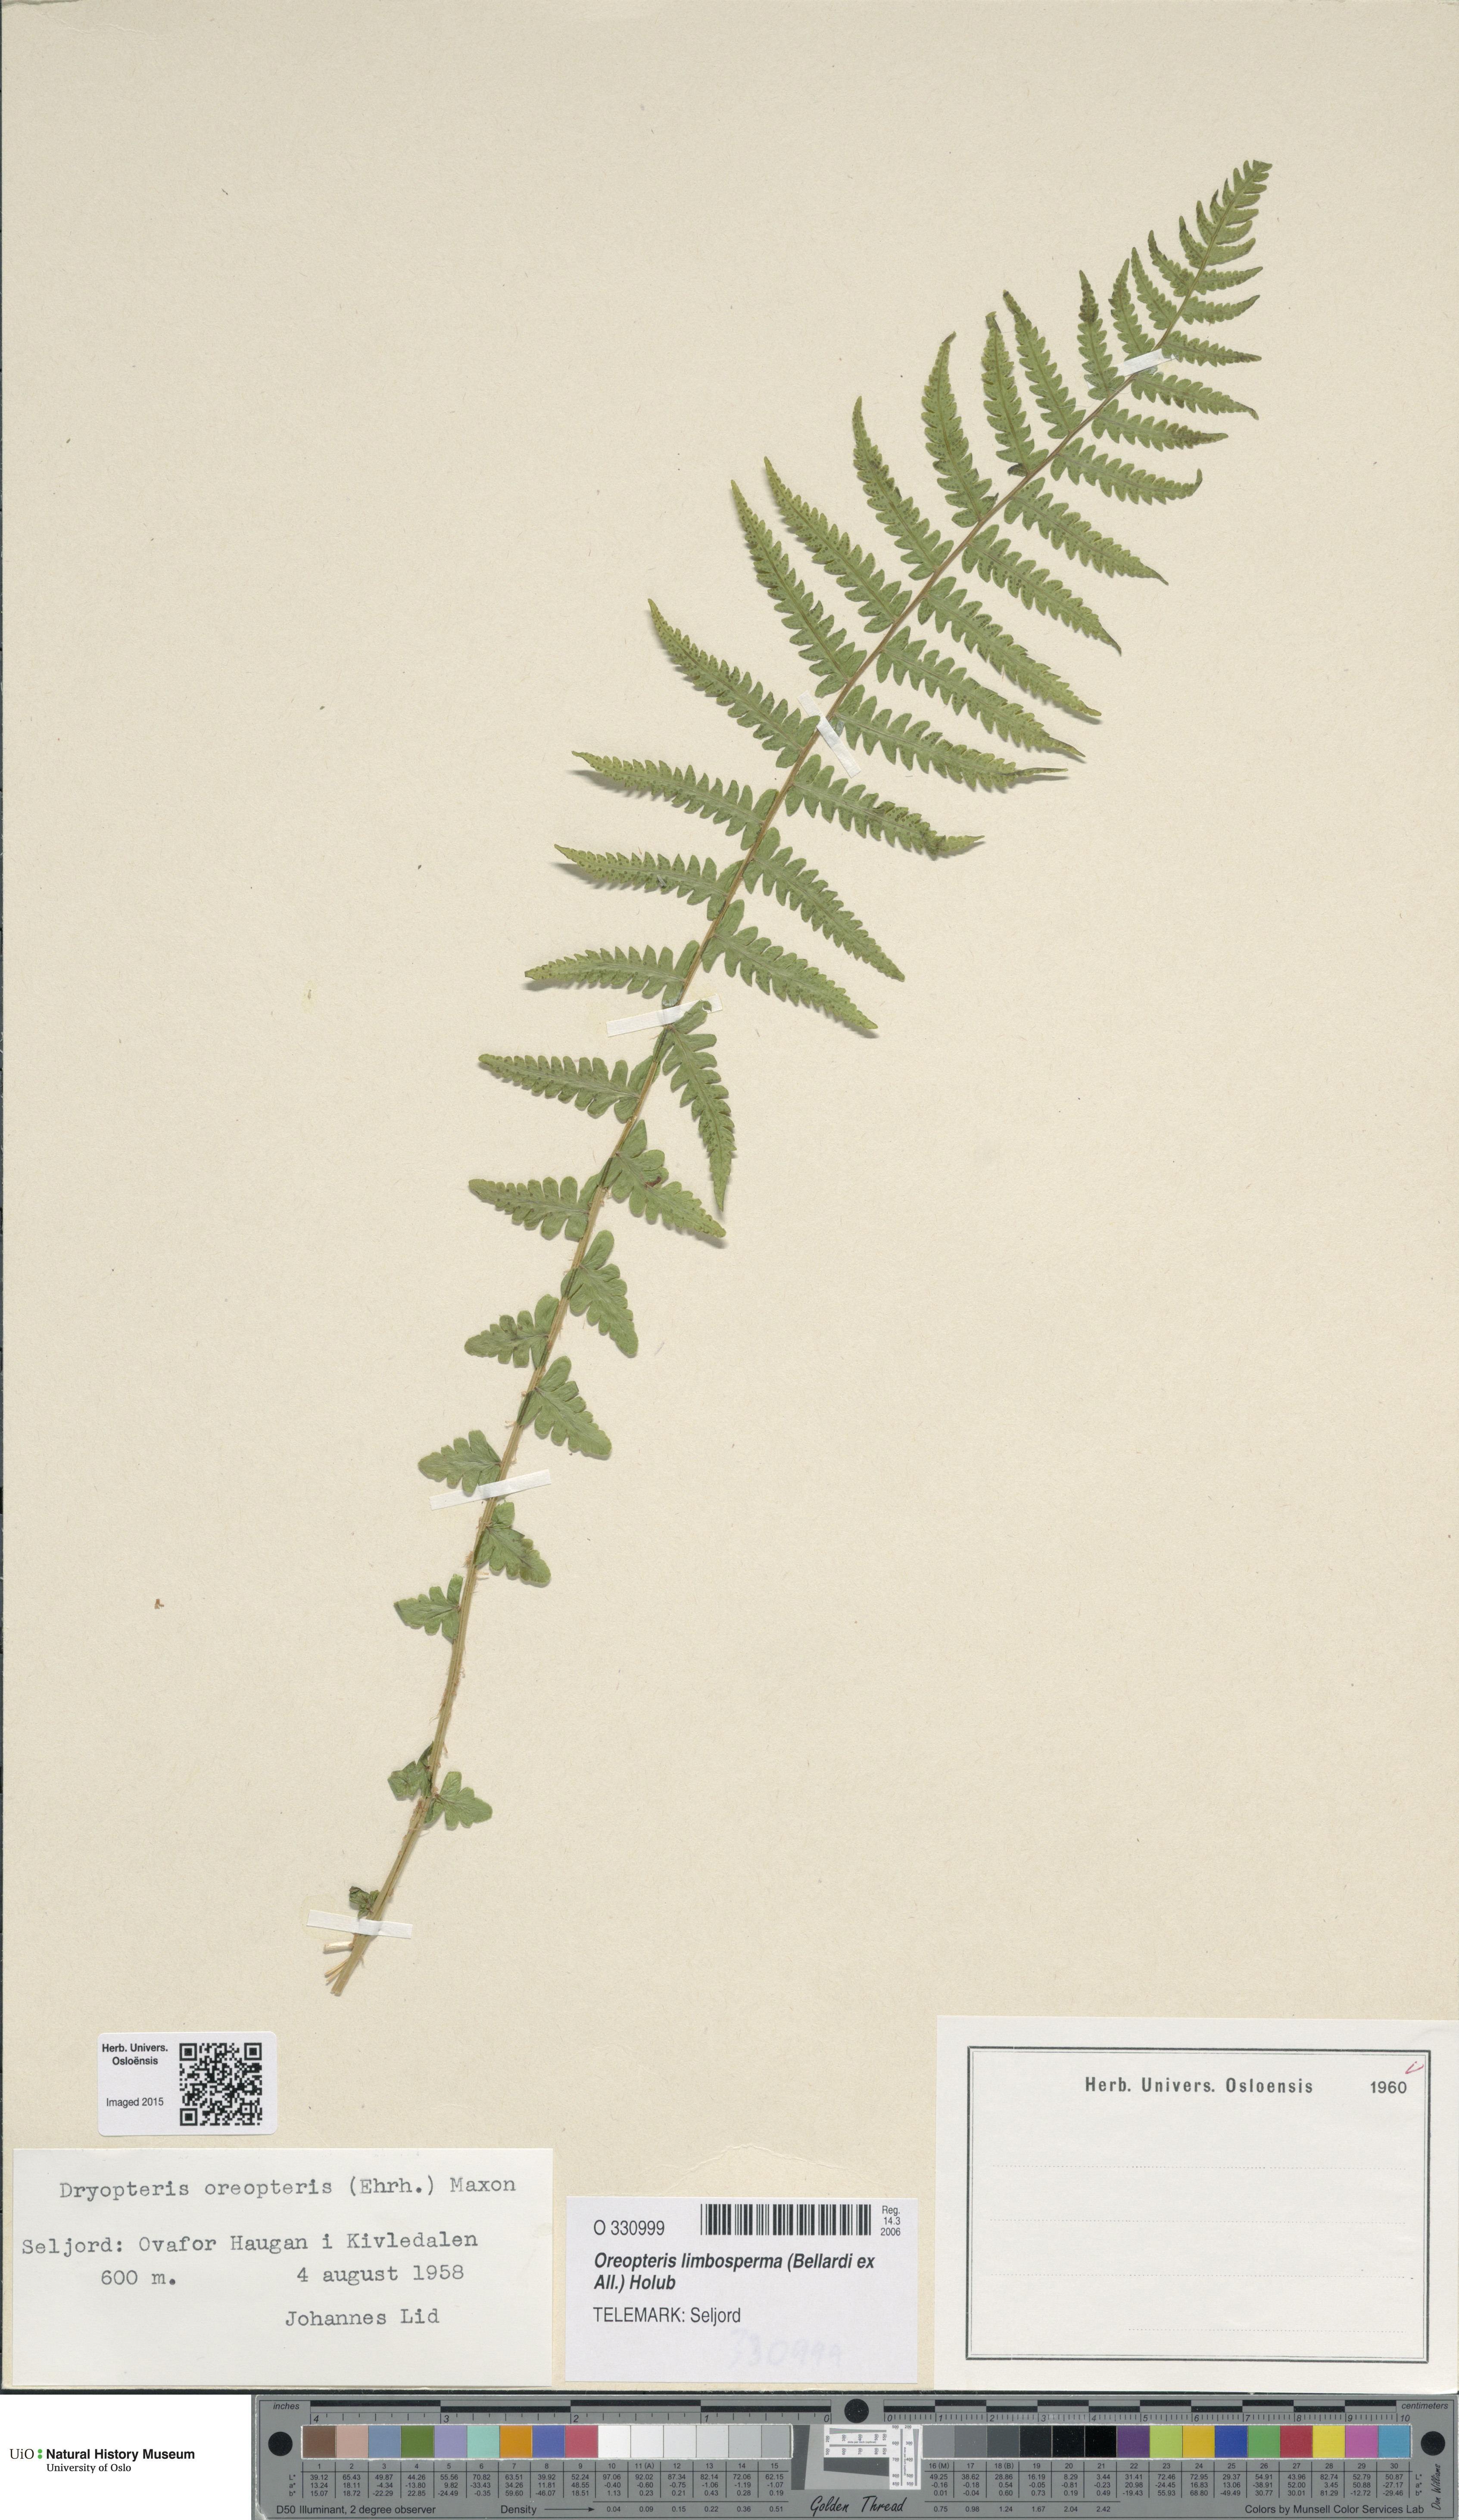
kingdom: Plantae
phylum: Tracheophyta
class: Polypodiopsida
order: Polypodiales
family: Thelypteridaceae
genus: Oreopteris
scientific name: Oreopteris limbosperma
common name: Lemon-scented fern
